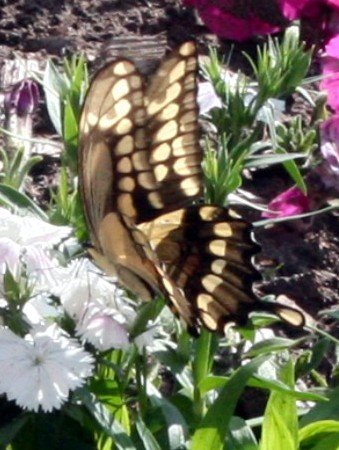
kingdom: Animalia
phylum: Arthropoda
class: Insecta
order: Lepidoptera
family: Papilionidae
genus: Papilio
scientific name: Papilio cresphontes
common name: Eastern Giant Swallowtail
